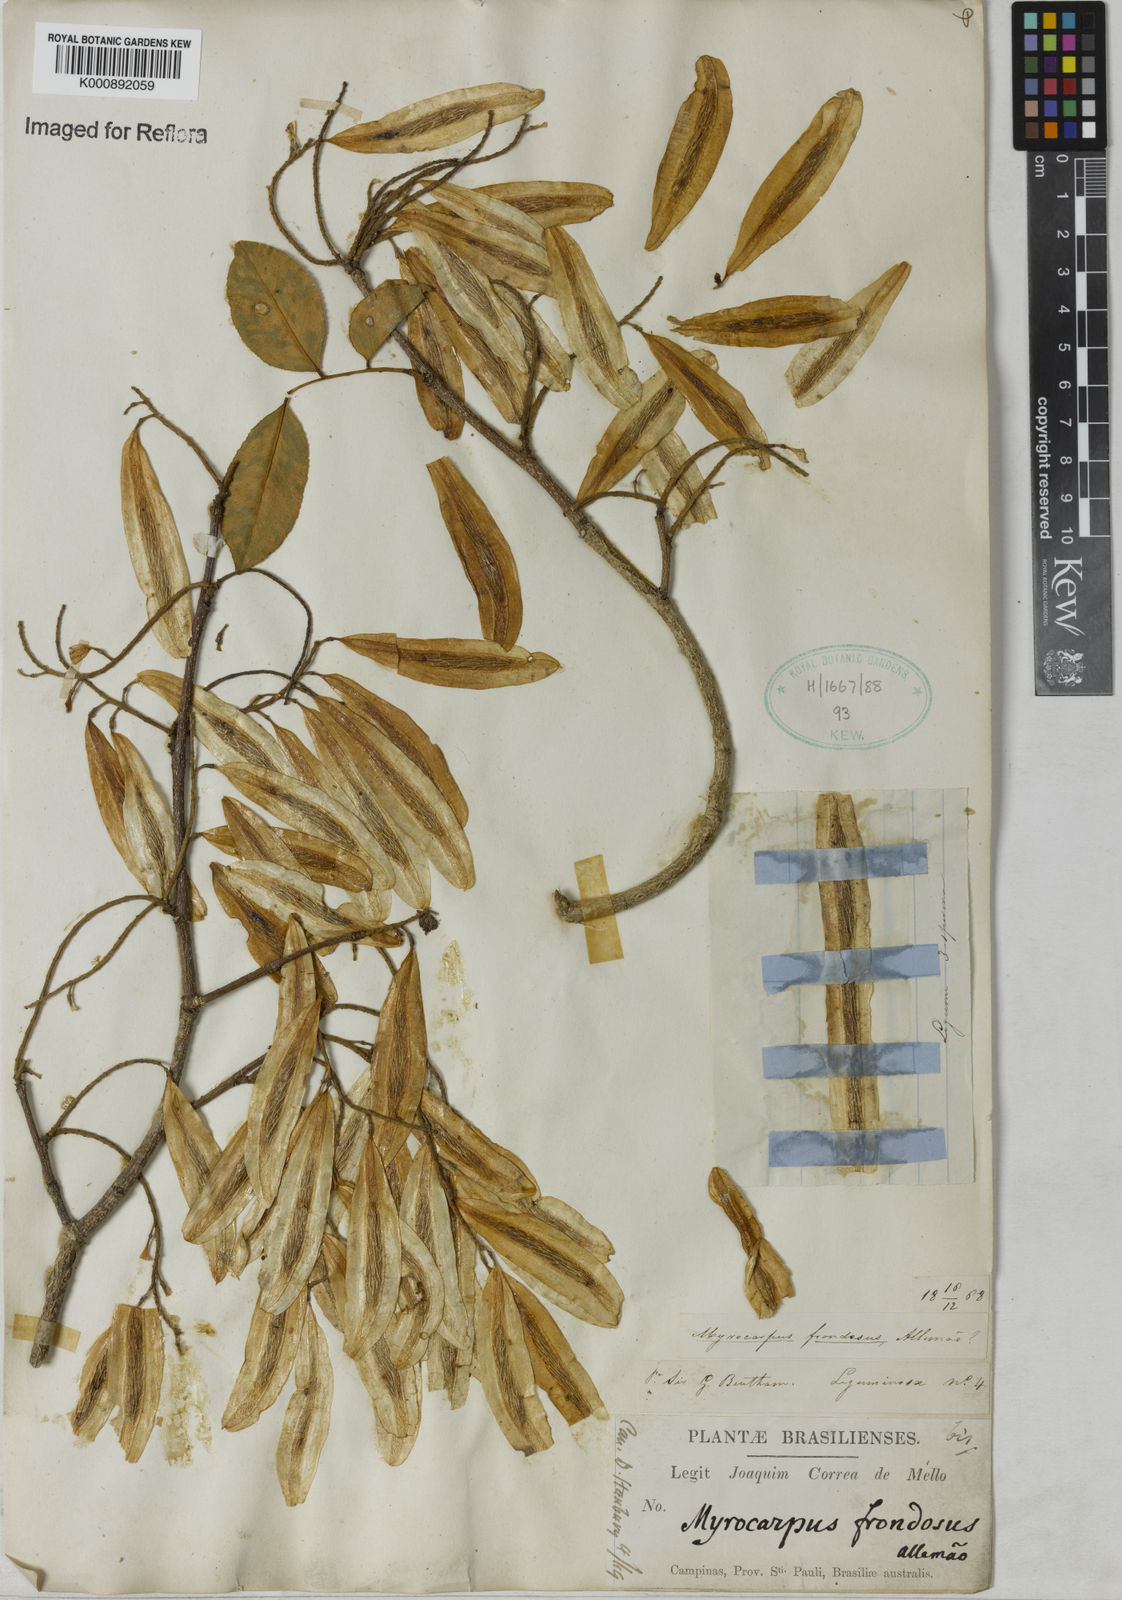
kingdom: Plantae
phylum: Tracheophyta
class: Magnoliopsida
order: Fabales
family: Fabaceae
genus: Myrocarpus
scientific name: Myrocarpus
